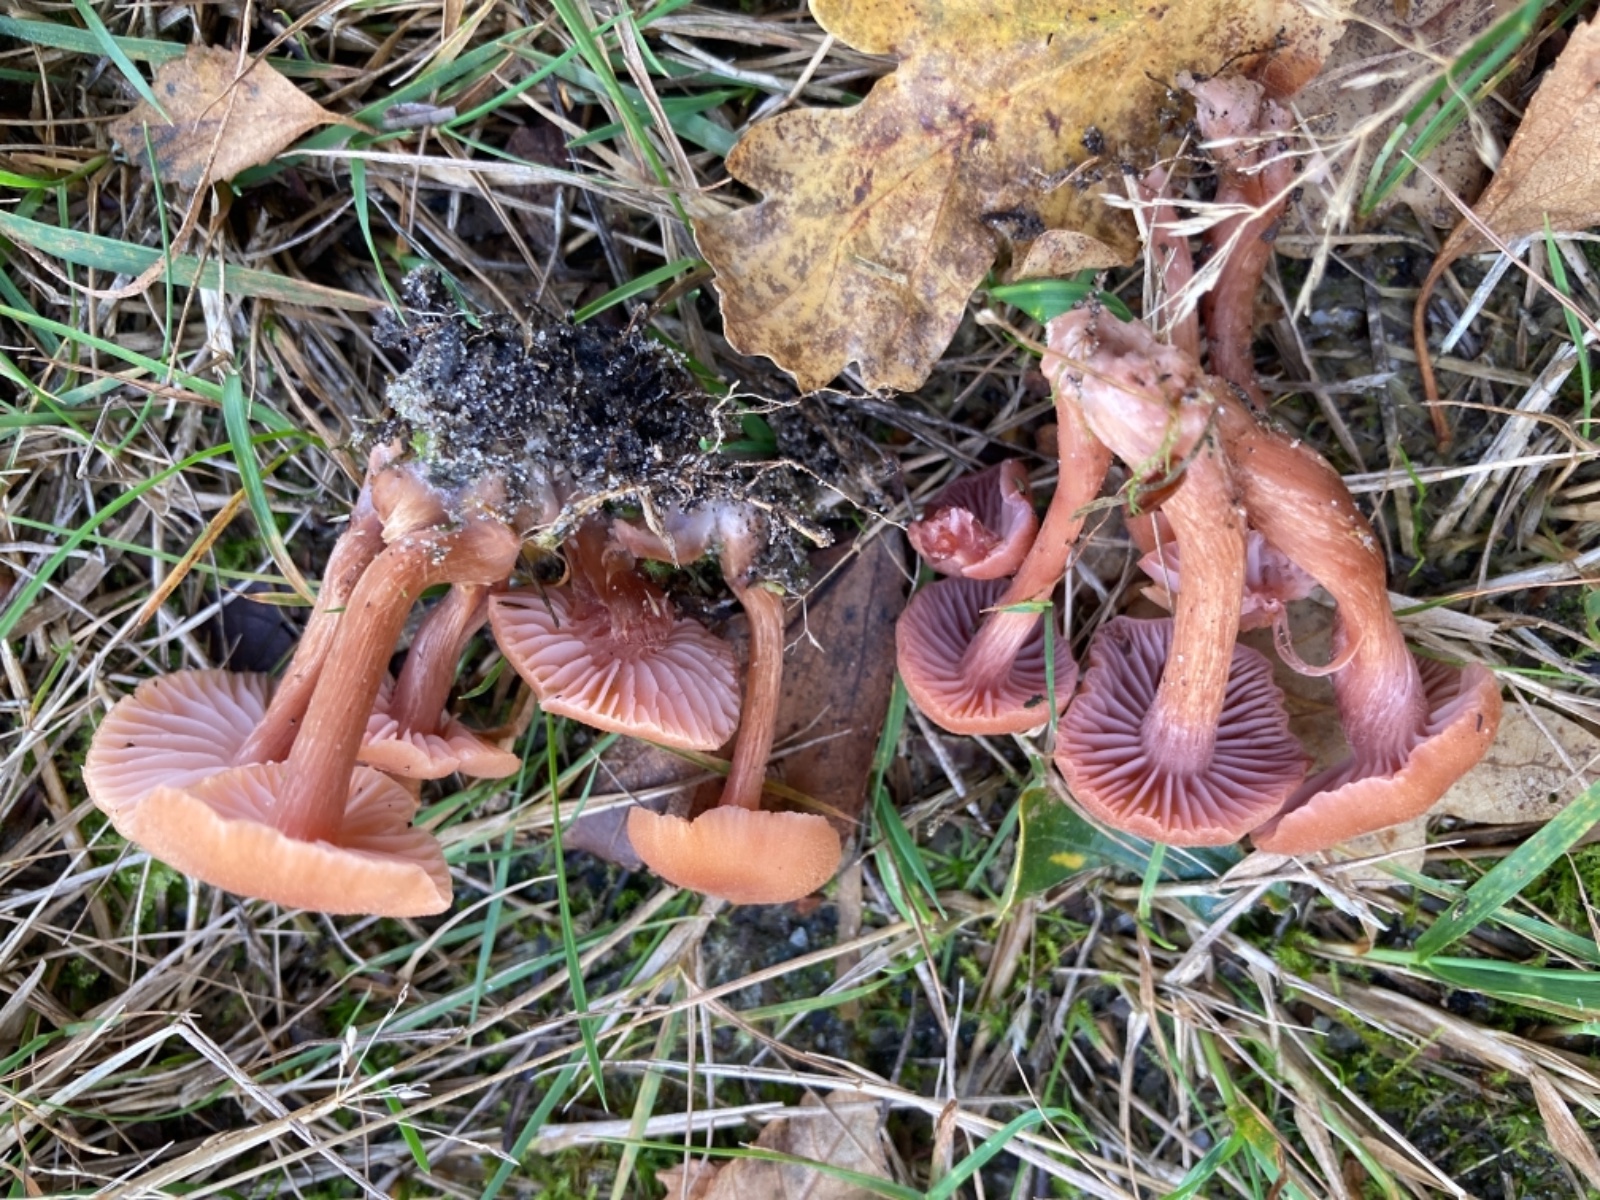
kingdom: Fungi
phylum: Basidiomycota
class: Agaricomycetes
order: Agaricales
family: Hydnangiaceae
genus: Laccaria
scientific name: Laccaria bicolor
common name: tvefarvet ametysthat
